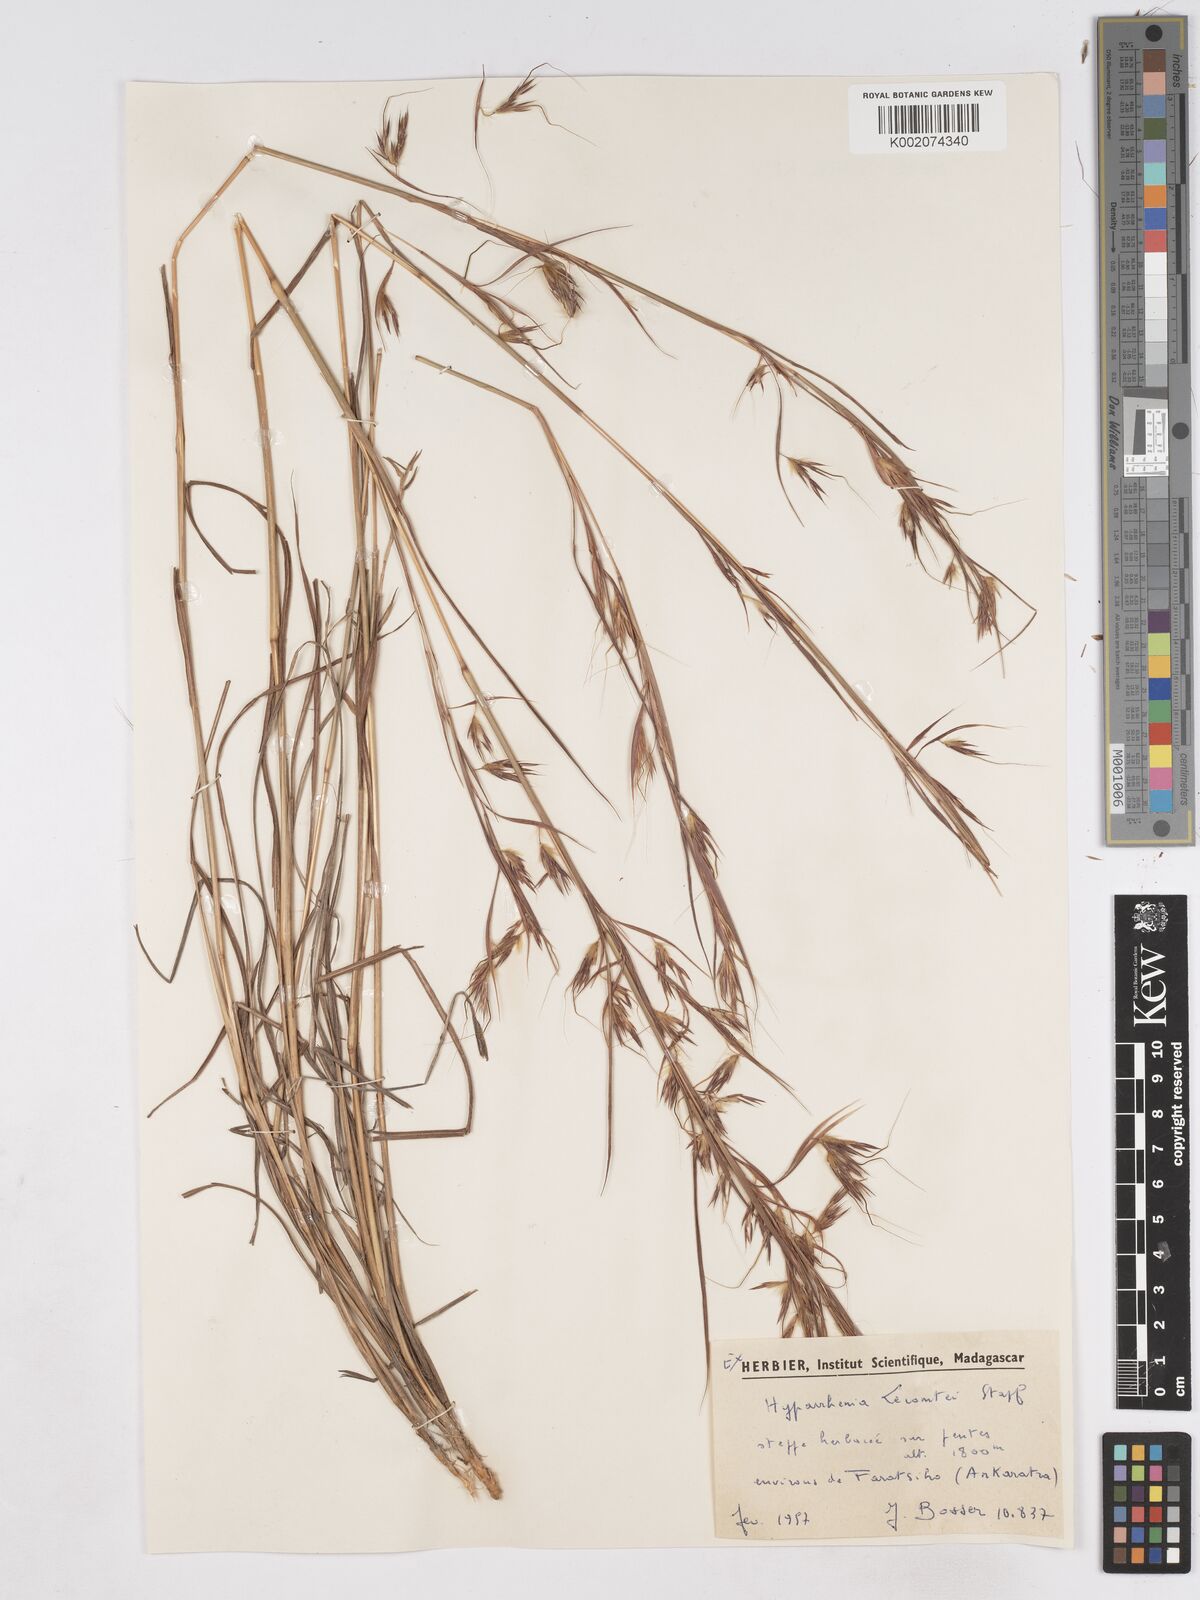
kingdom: Plantae
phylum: Tracheophyta
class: Liliopsida
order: Poales
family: Poaceae
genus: Hyparrhenia
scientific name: Hyparrhenia newtonii
